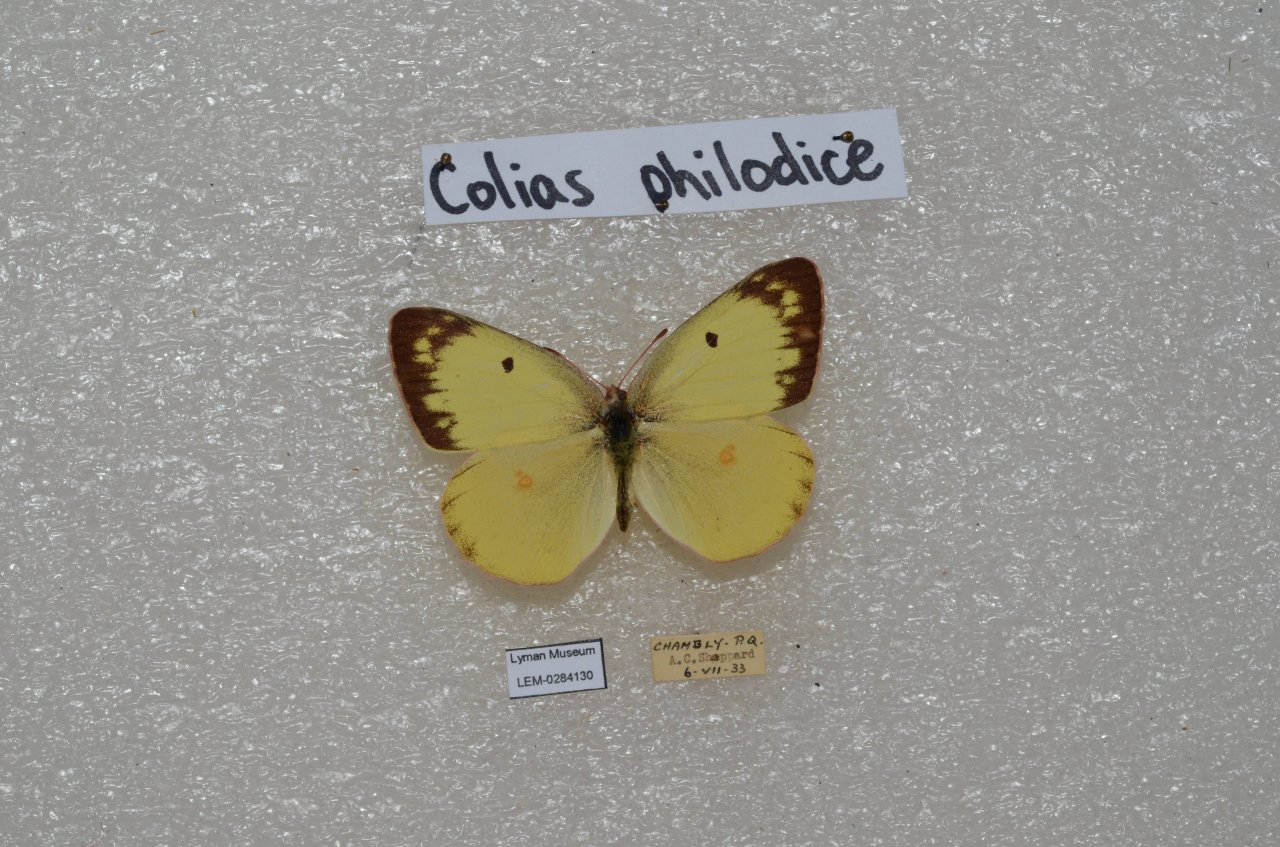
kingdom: Animalia
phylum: Arthropoda
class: Insecta
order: Lepidoptera
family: Pieridae
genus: Colias
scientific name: Colias philodice
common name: Clouded Sulphur
